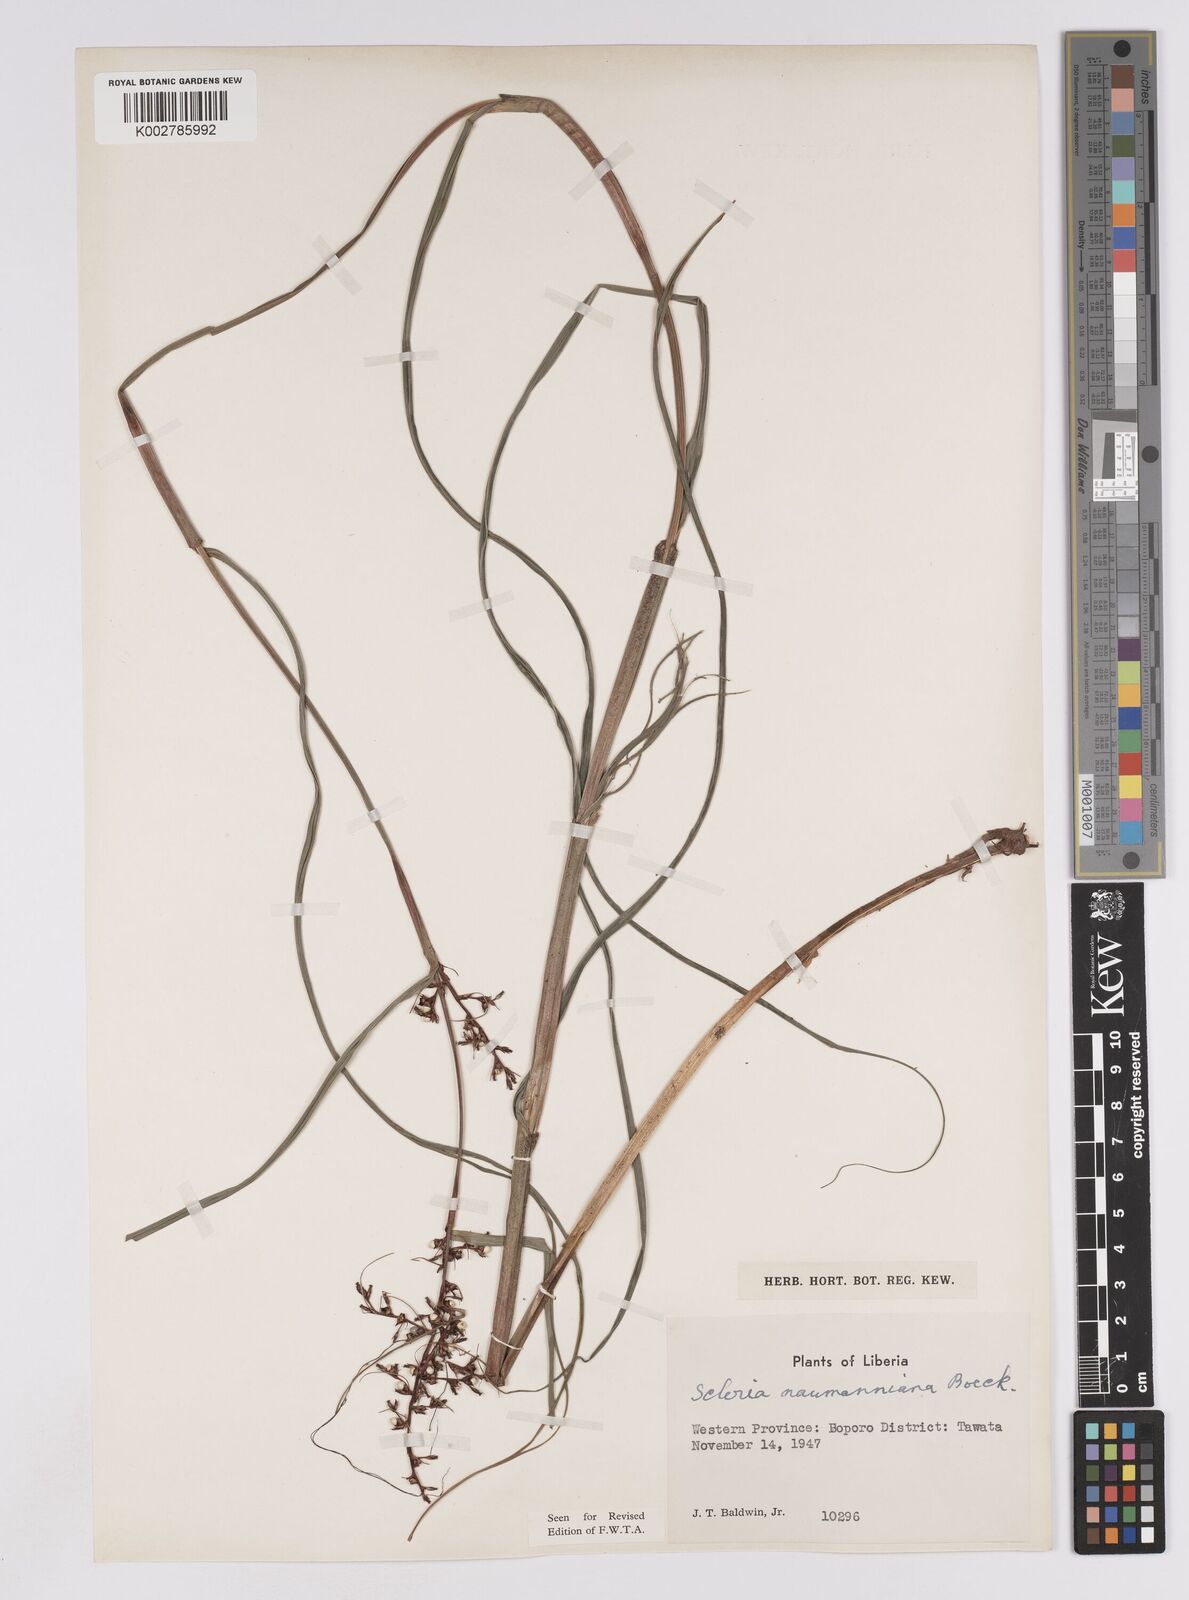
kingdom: Plantae
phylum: Tracheophyta
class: Liliopsida
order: Poales
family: Cyperaceae
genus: Scleria
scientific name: Scleria naumanniana
